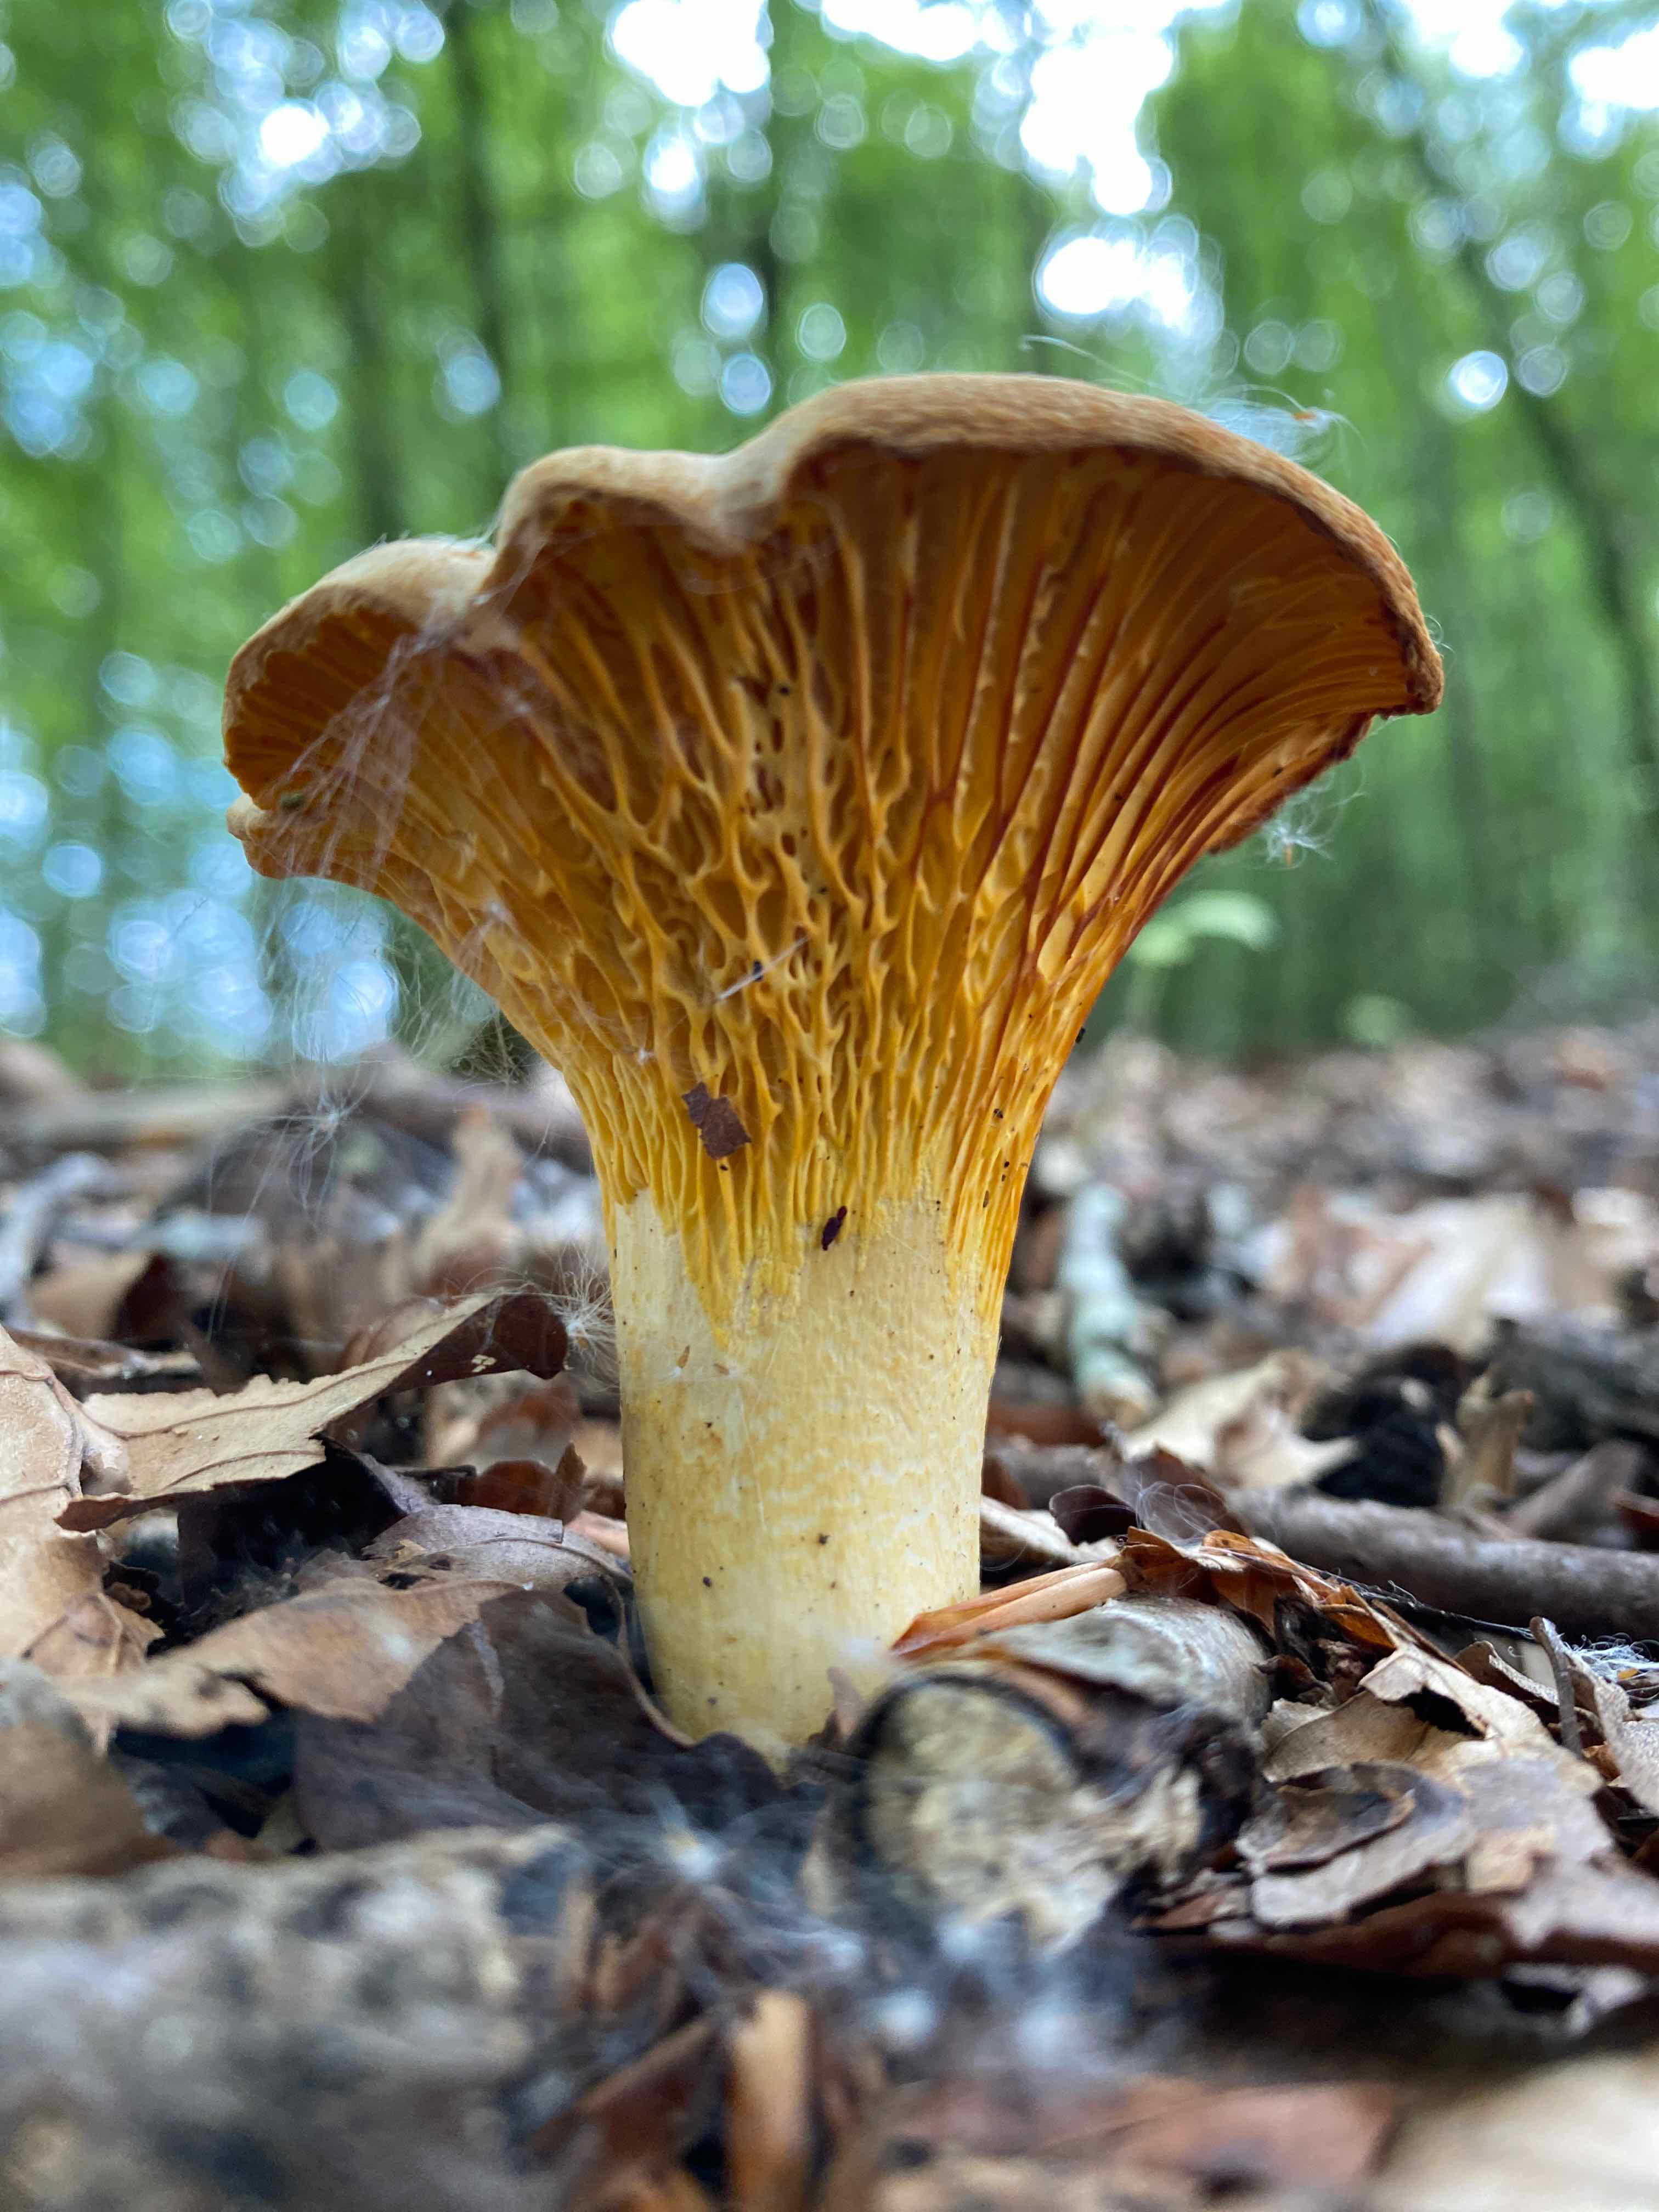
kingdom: Fungi
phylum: Basidiomycota
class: Agaricomycetes
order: Cantharellales
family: Hydnaceae
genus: Cantharellus
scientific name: Cantharellus pallens
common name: bleg kantarel
